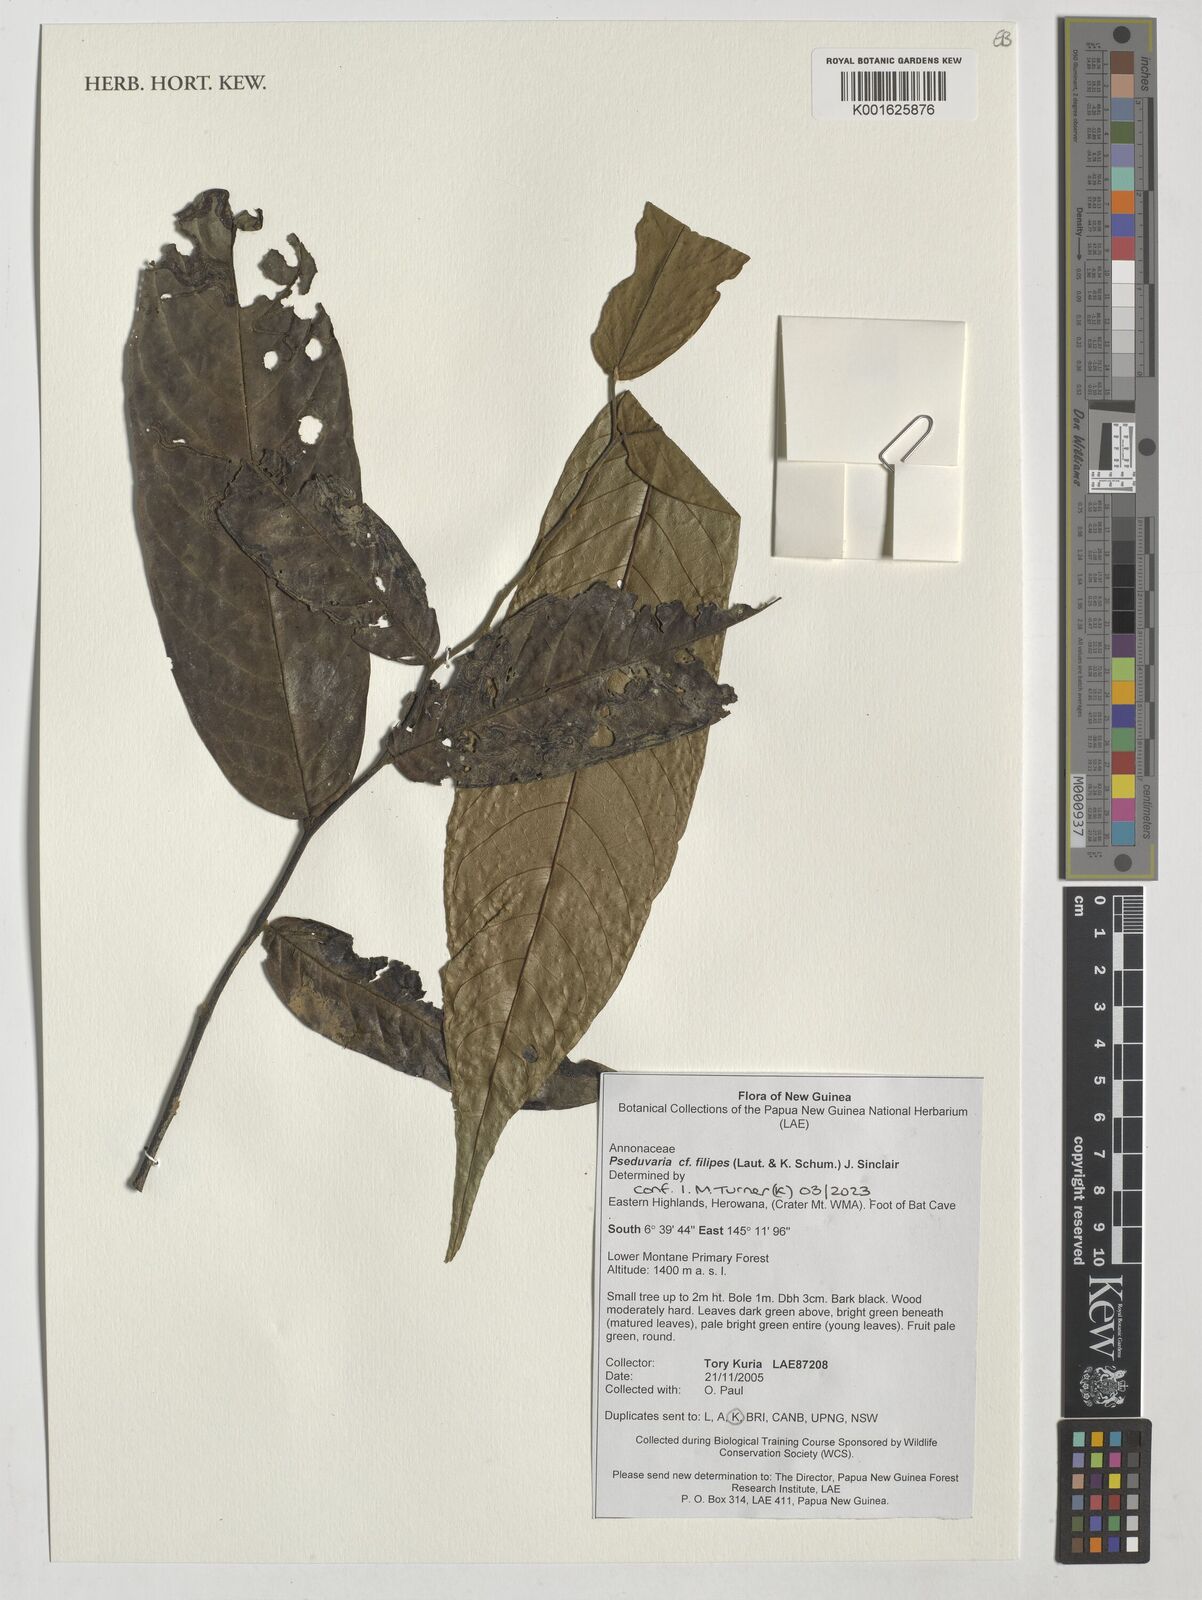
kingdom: Plantae
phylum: Tracheophyta
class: Magnoliopsida
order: Magnoliales
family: Annonaceae
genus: Pseuduvaria
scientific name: Pseuduvaria filipes
